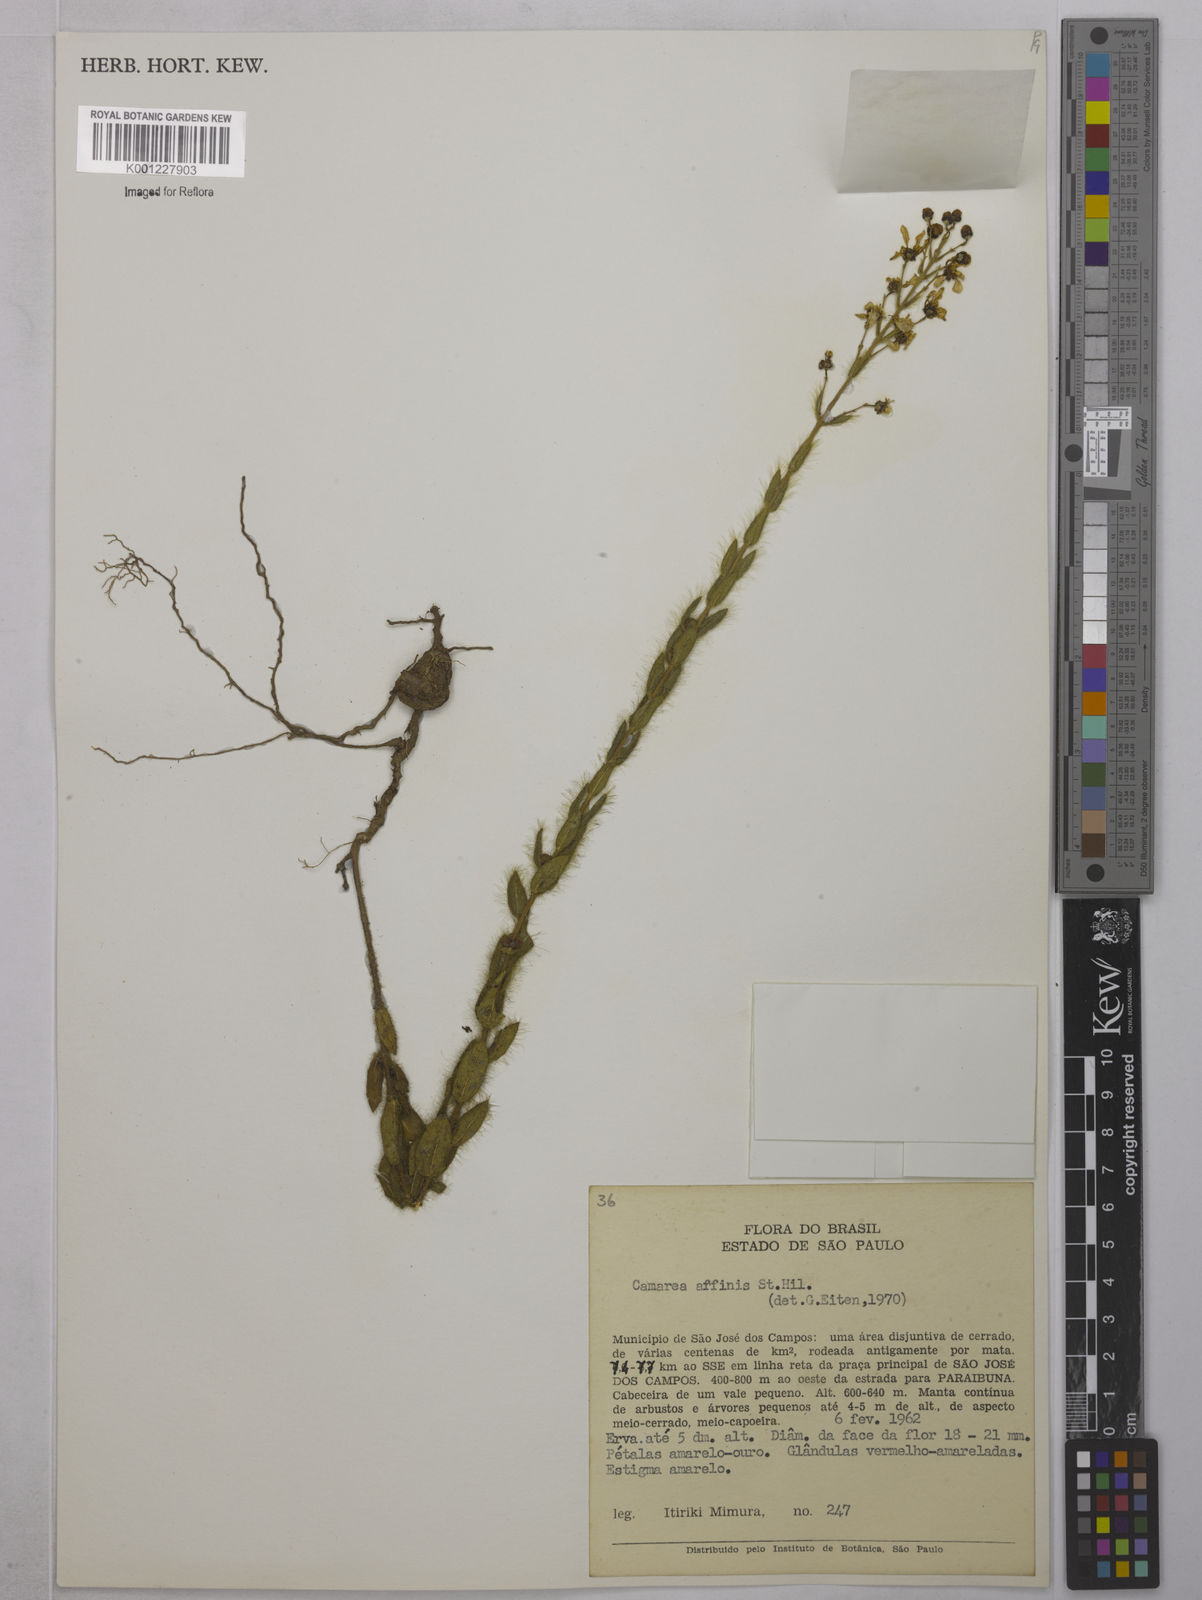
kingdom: Plantae
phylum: Tracheophyta
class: Magnoliopsida
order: Malpighiales
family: Malpighiaceae
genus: Camarea
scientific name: Camarea affinis
